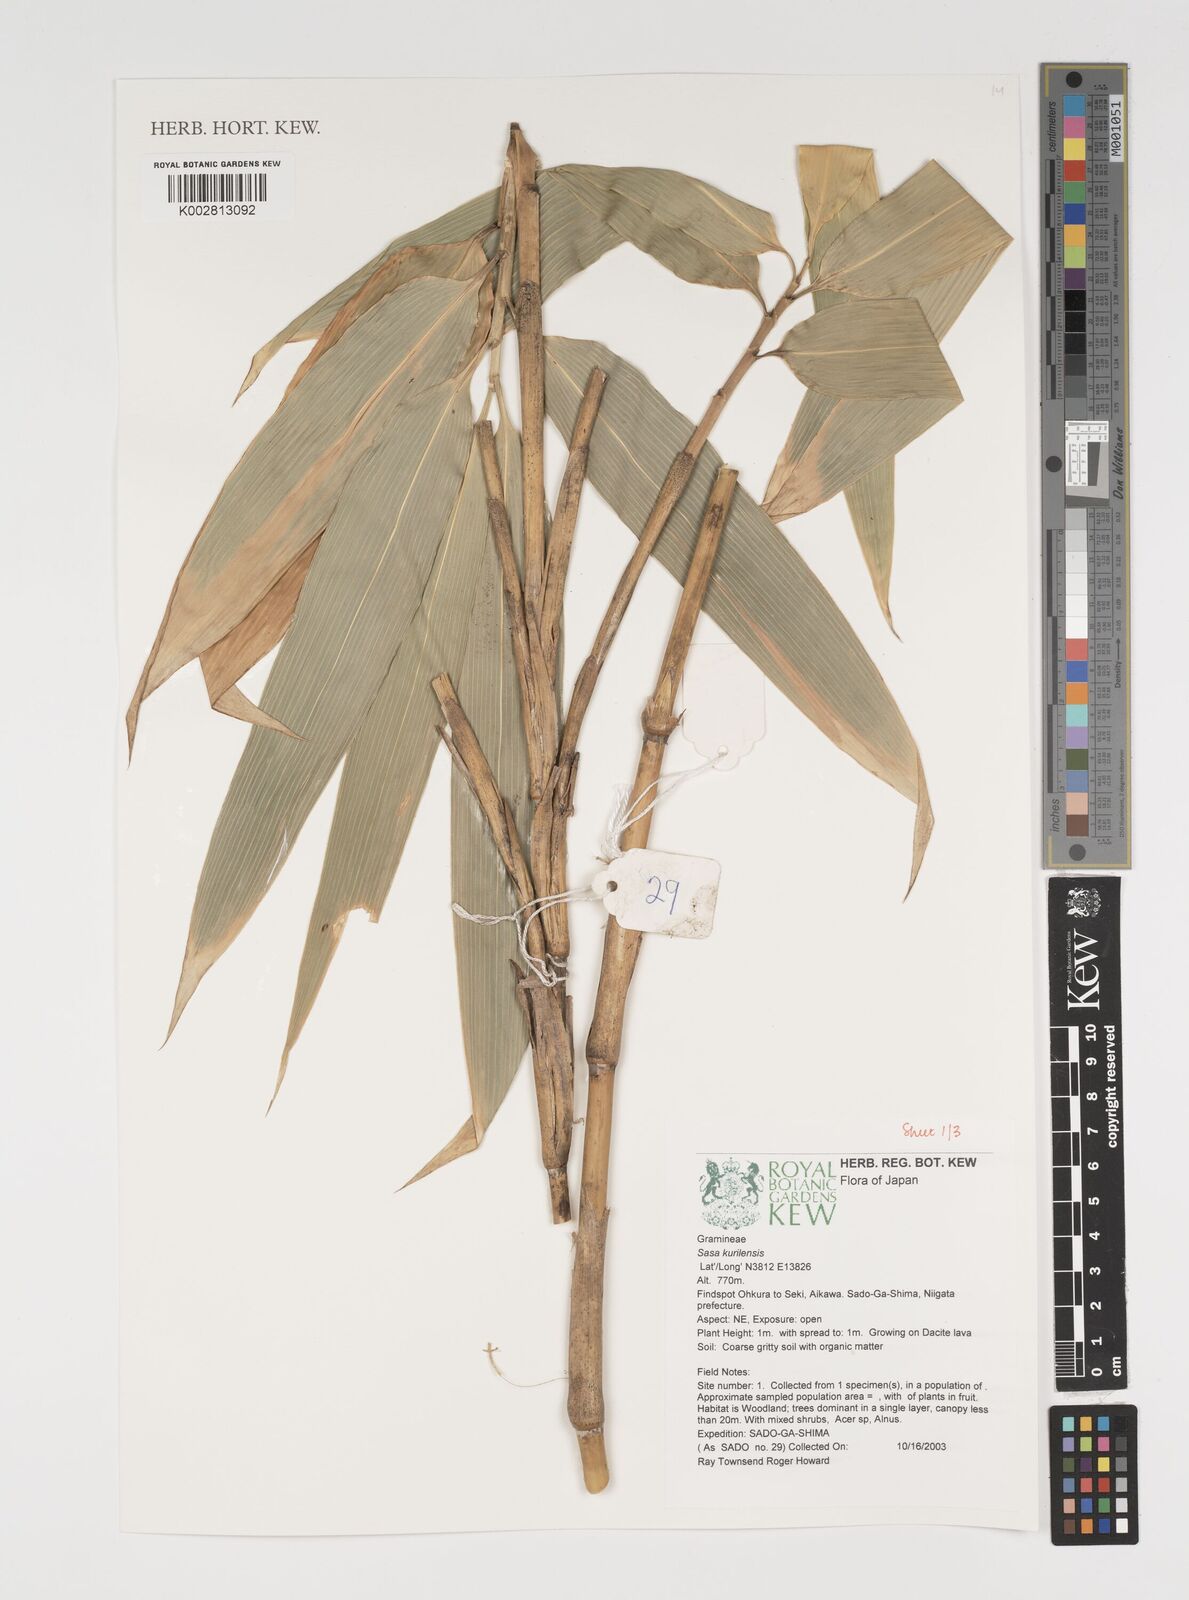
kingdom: Plantae
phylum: Tracheophyta
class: Liliopsida
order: Poales
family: Poaceae
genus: Sasa
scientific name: Sasa kurilensis
